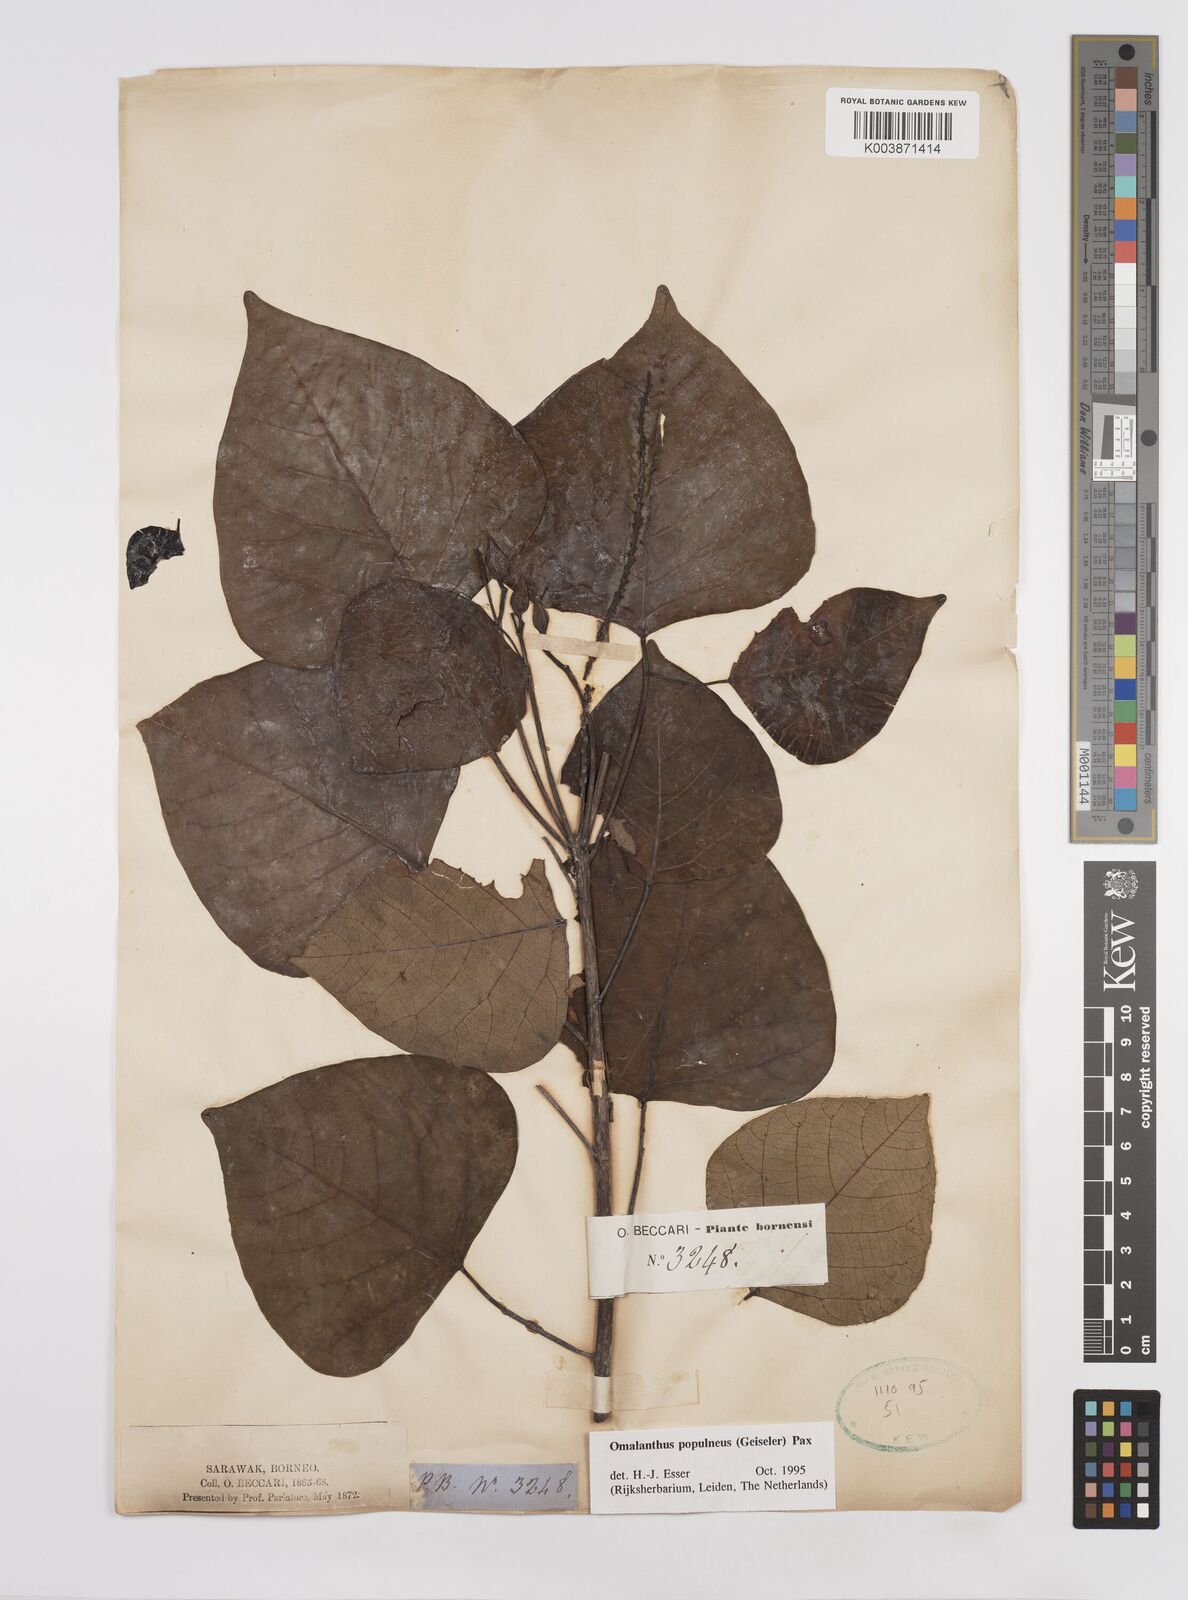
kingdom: Plantae
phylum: Tracheophyta
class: Magnoliopsida
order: Malpighiales
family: Euphorbiaceae
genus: Homalanthus
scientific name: Homalanthus populneus
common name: Spurge
